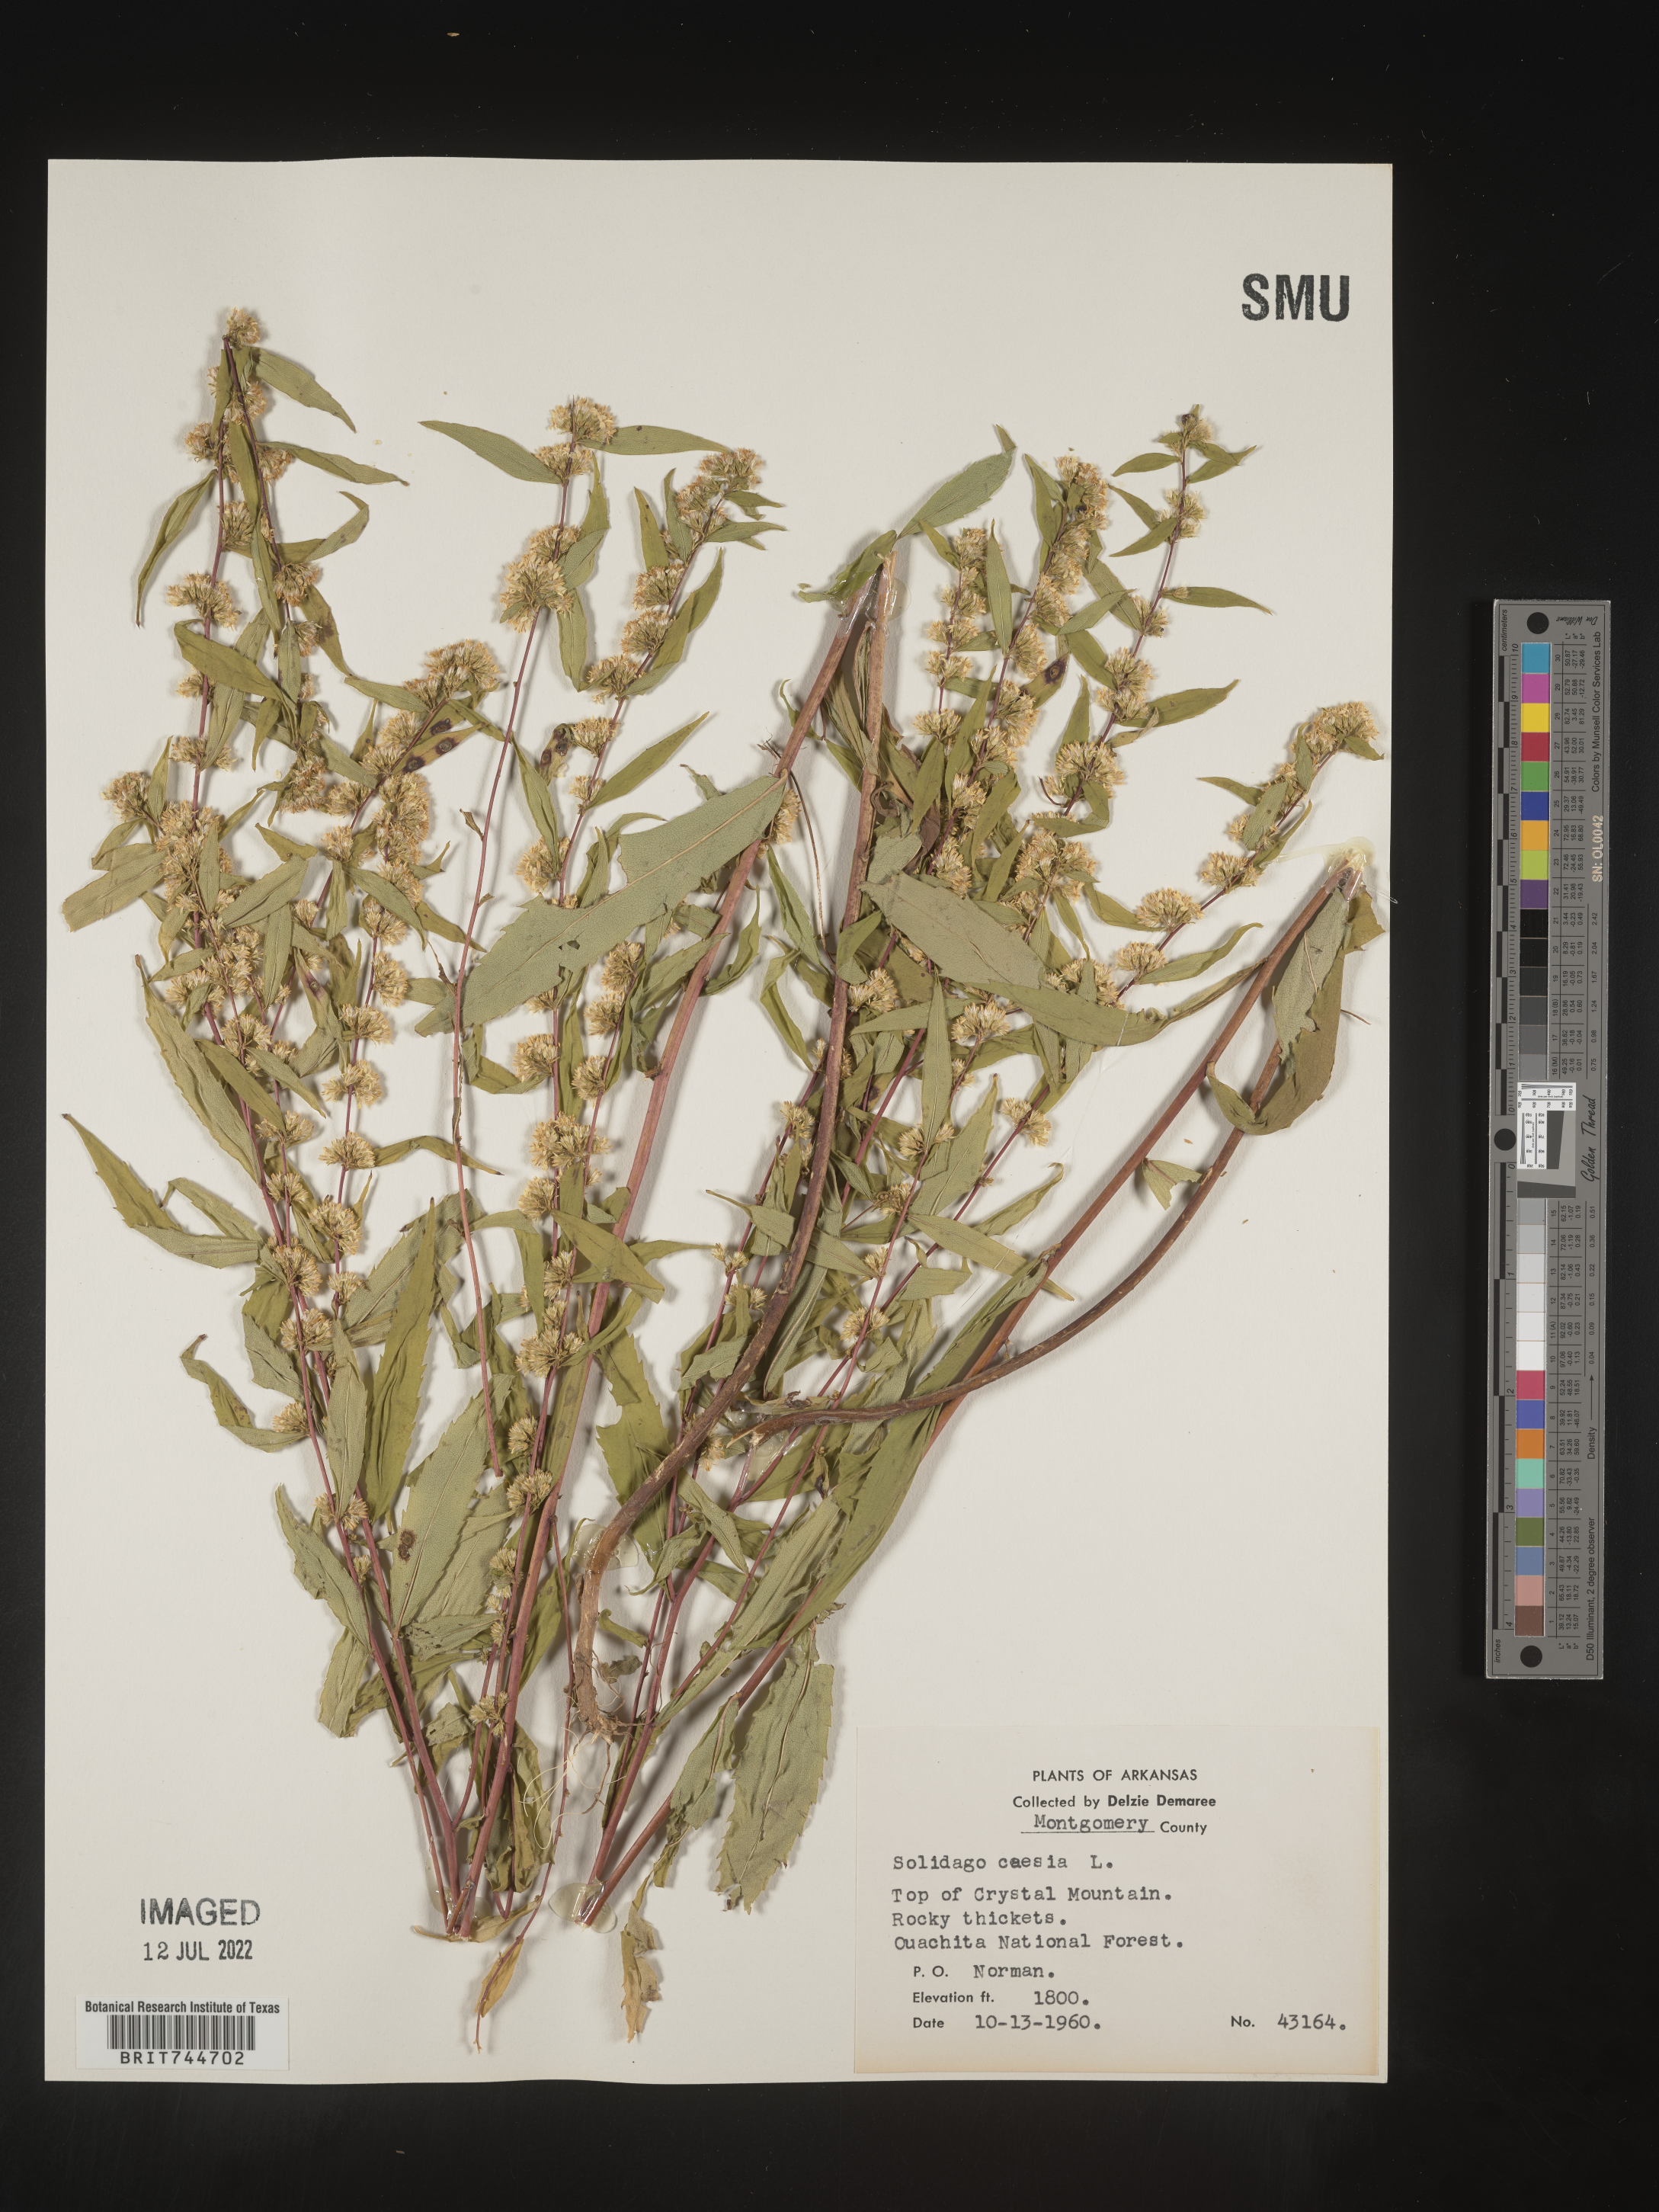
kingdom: Plantae
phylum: Tracheophyta
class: Magnoliopsida
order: Asterales
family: Asteraceae
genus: Solidago
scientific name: Solidago caesia
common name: Woodland goldenrod
